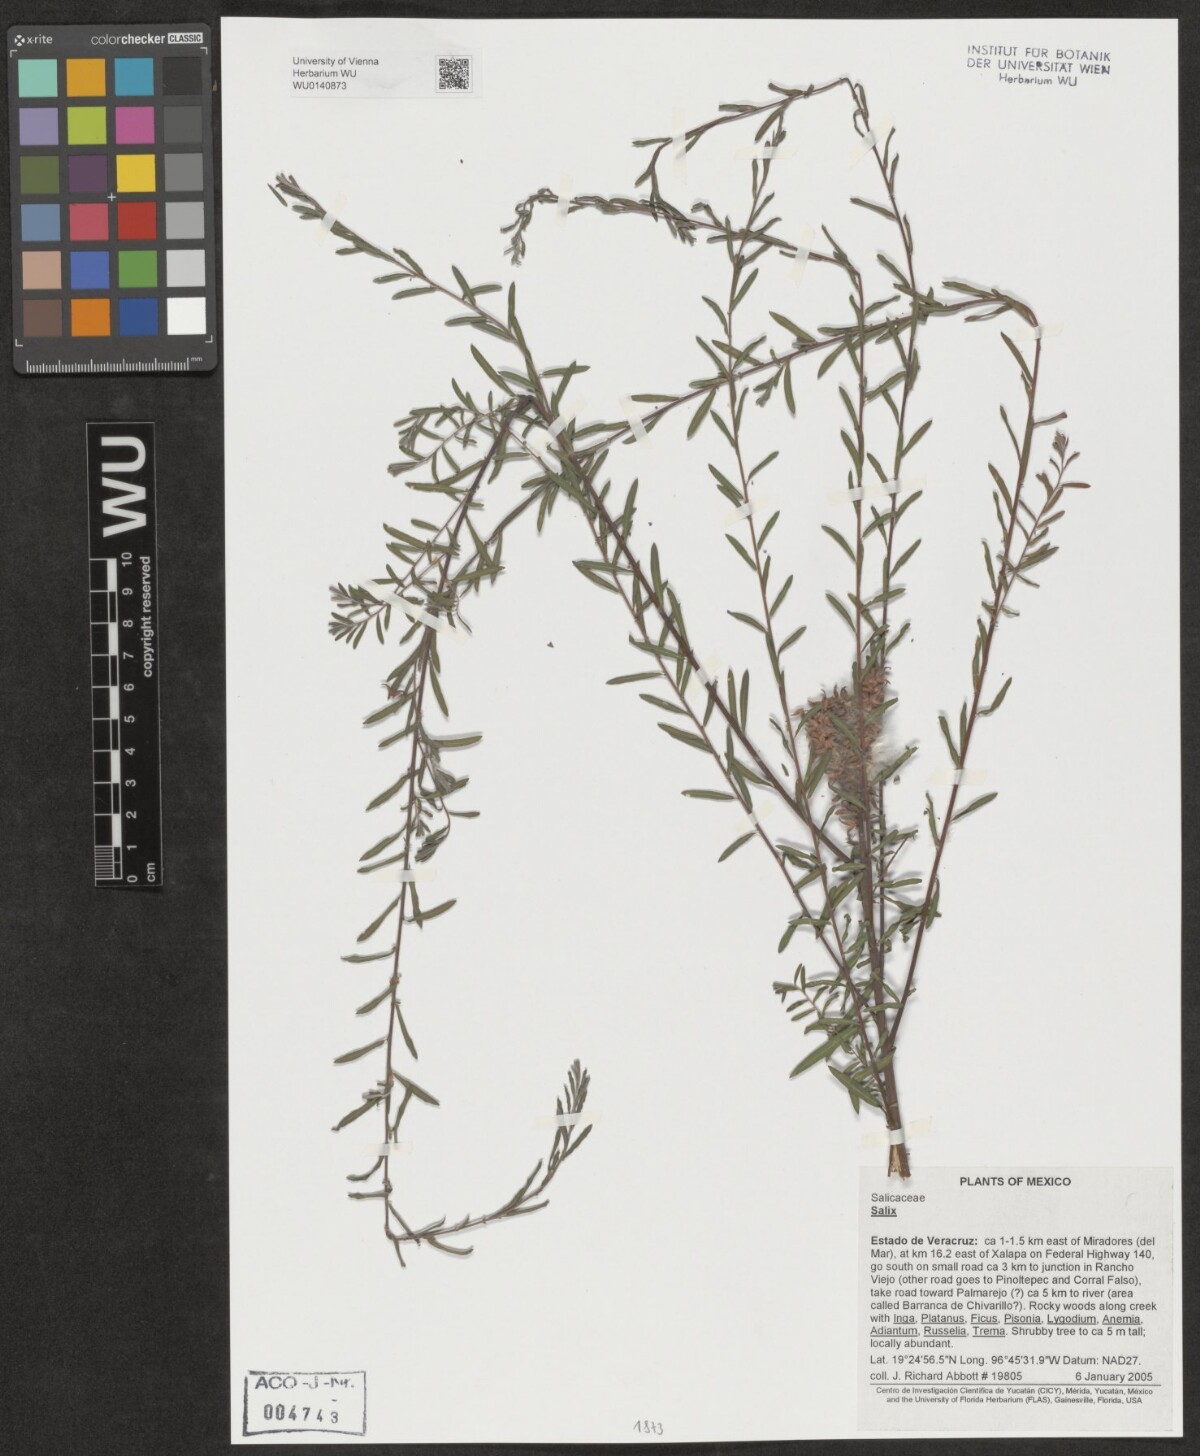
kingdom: Plantae
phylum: Tracheophyta
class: Magnoliopsida
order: Malpighiales
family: Salicaceae
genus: Salix
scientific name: Salix
